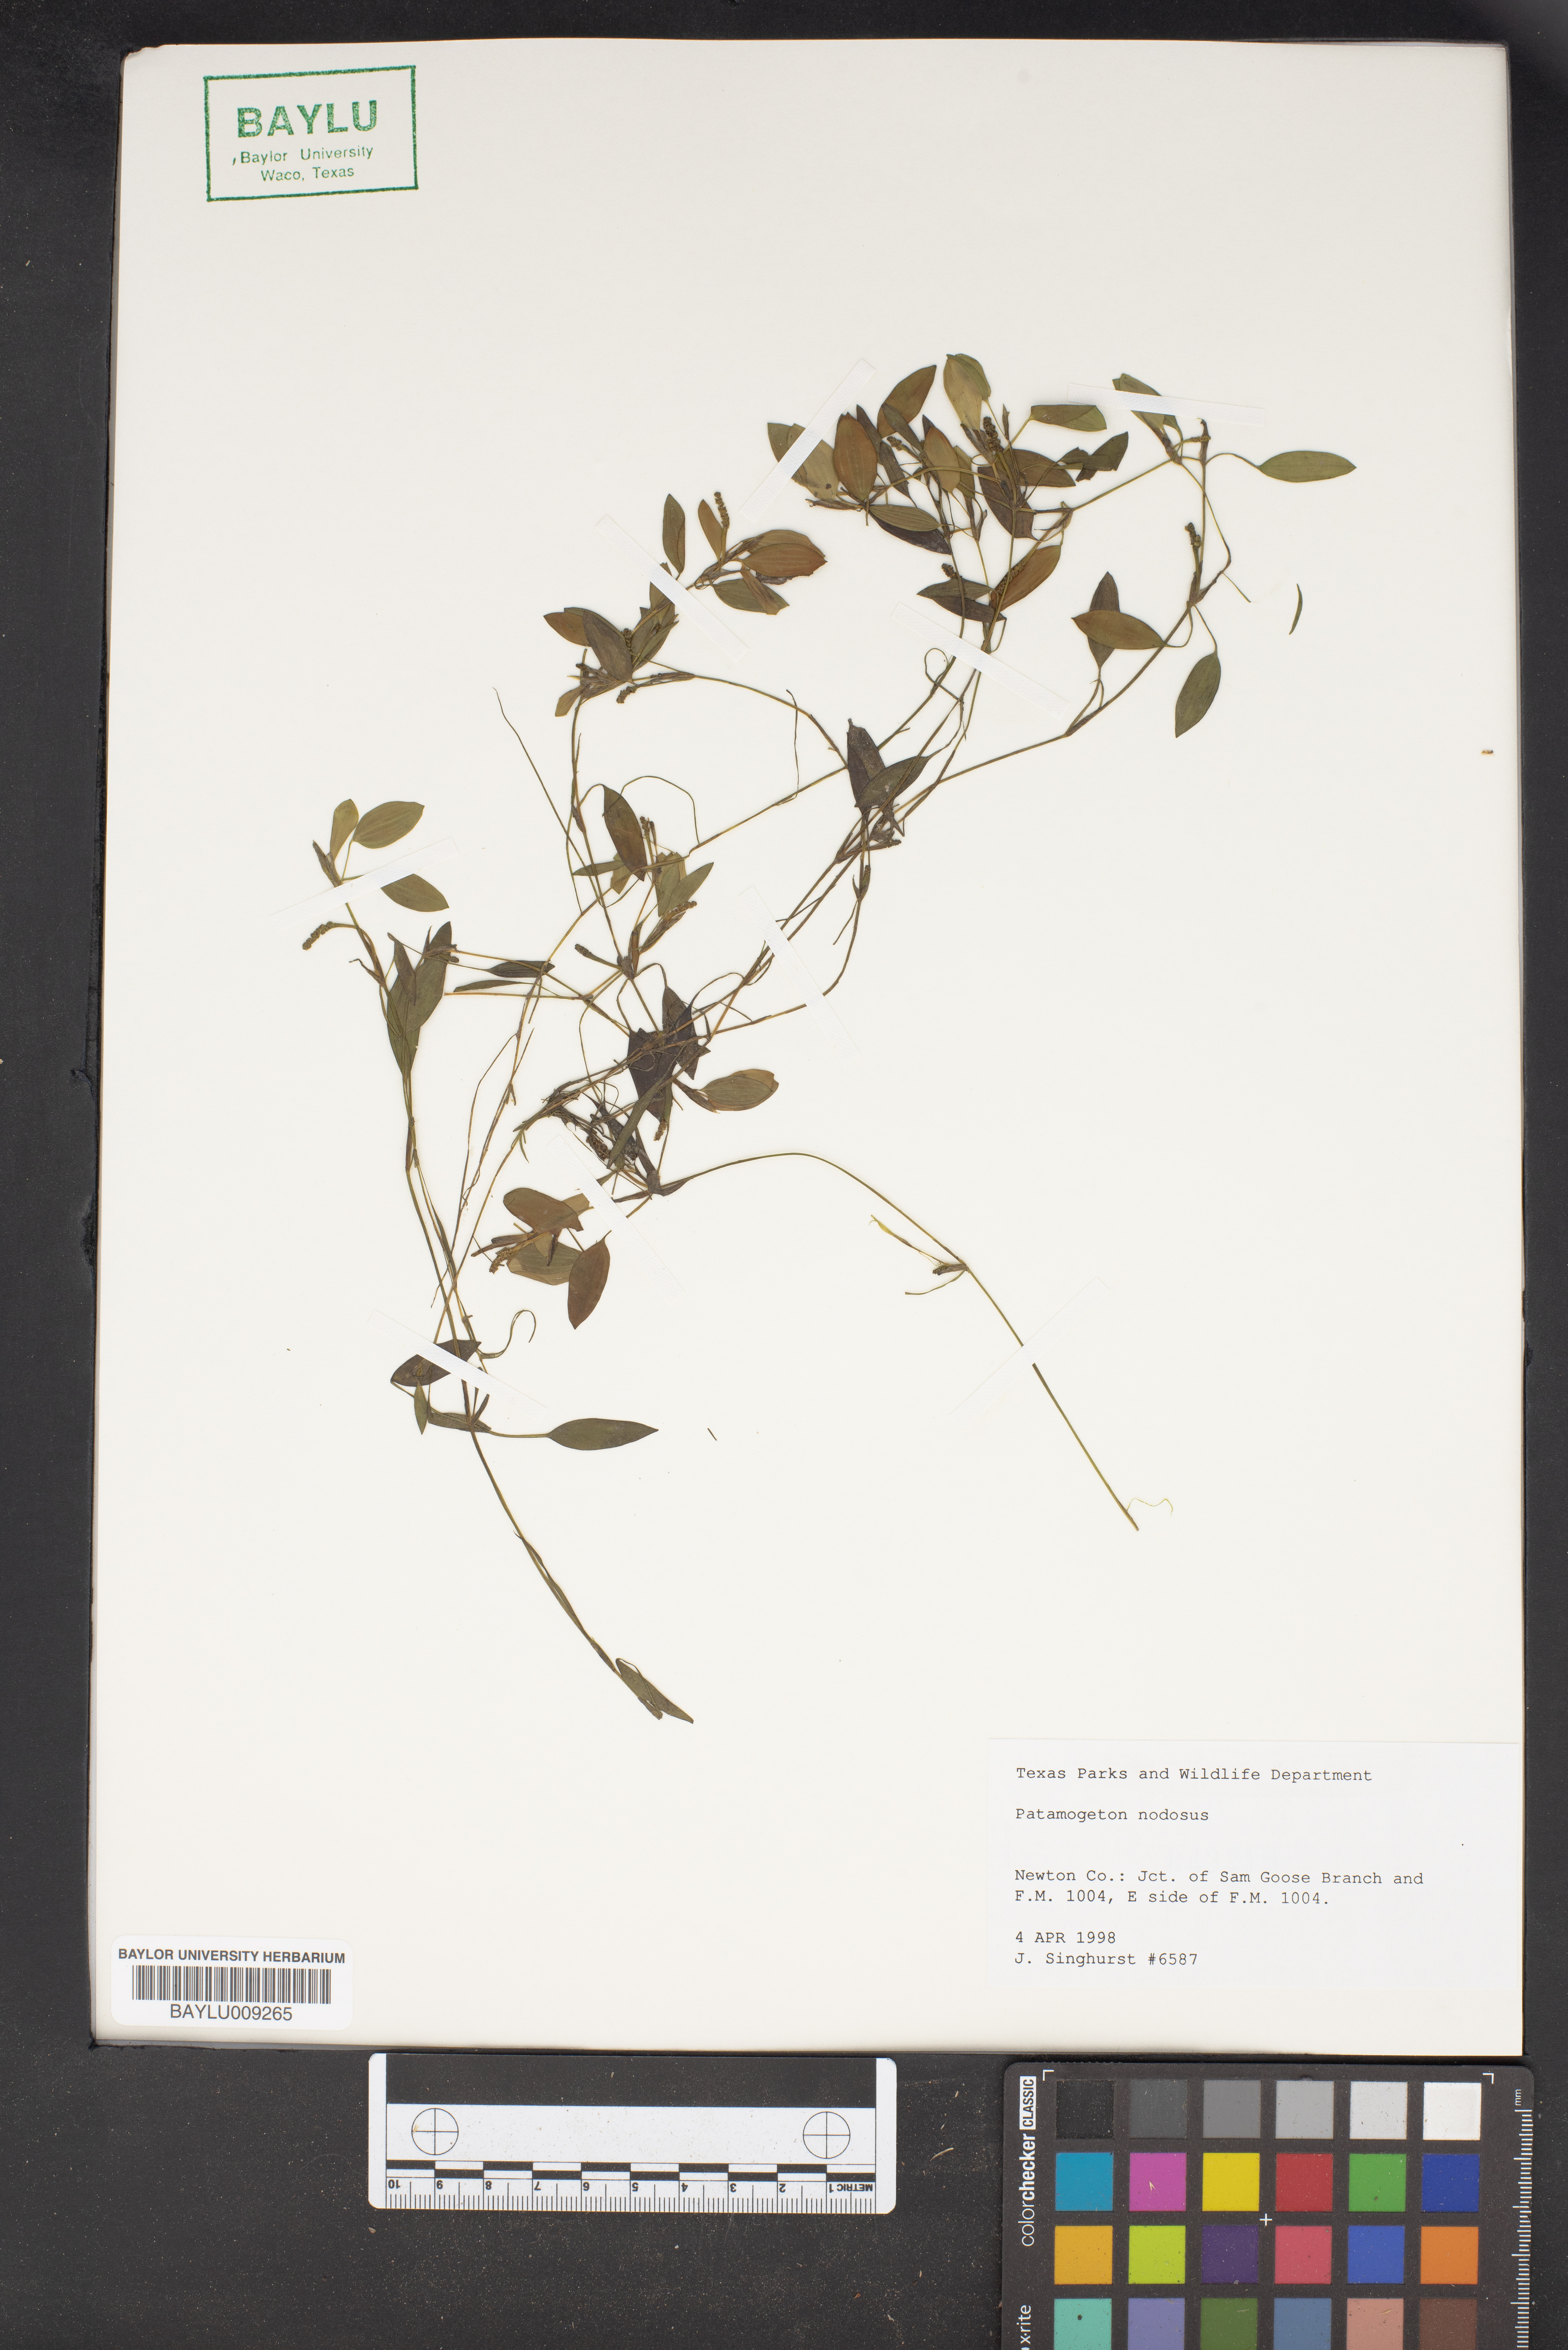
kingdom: Plantae
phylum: Tracheophyta
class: Liliopsida
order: Alismatales
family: Potamogetonaceae
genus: Potamogeton
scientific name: Potamogeton nodosus
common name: Loddon pondweed
